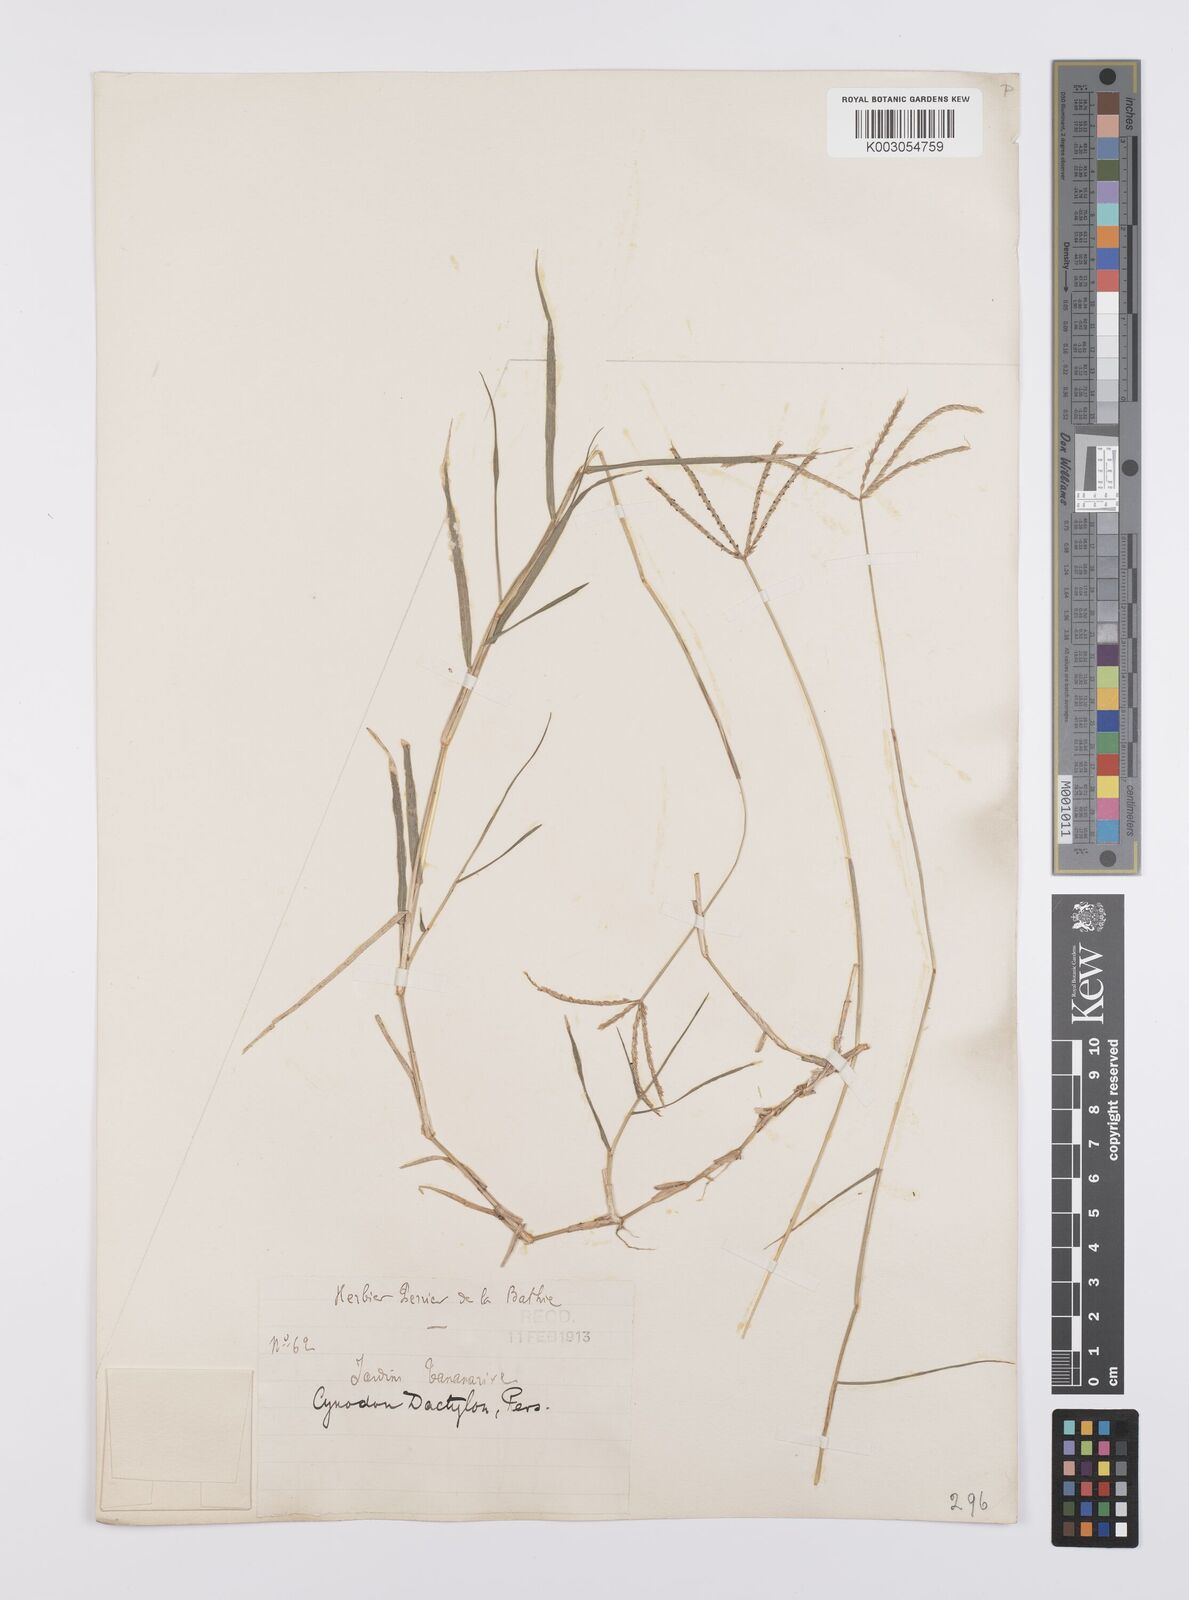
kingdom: Plantae
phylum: Tracheophyta
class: Liliopsida
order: Poales
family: Poaceae
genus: Cynodon
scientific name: Cynodon dactylon
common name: Bermuda grass
